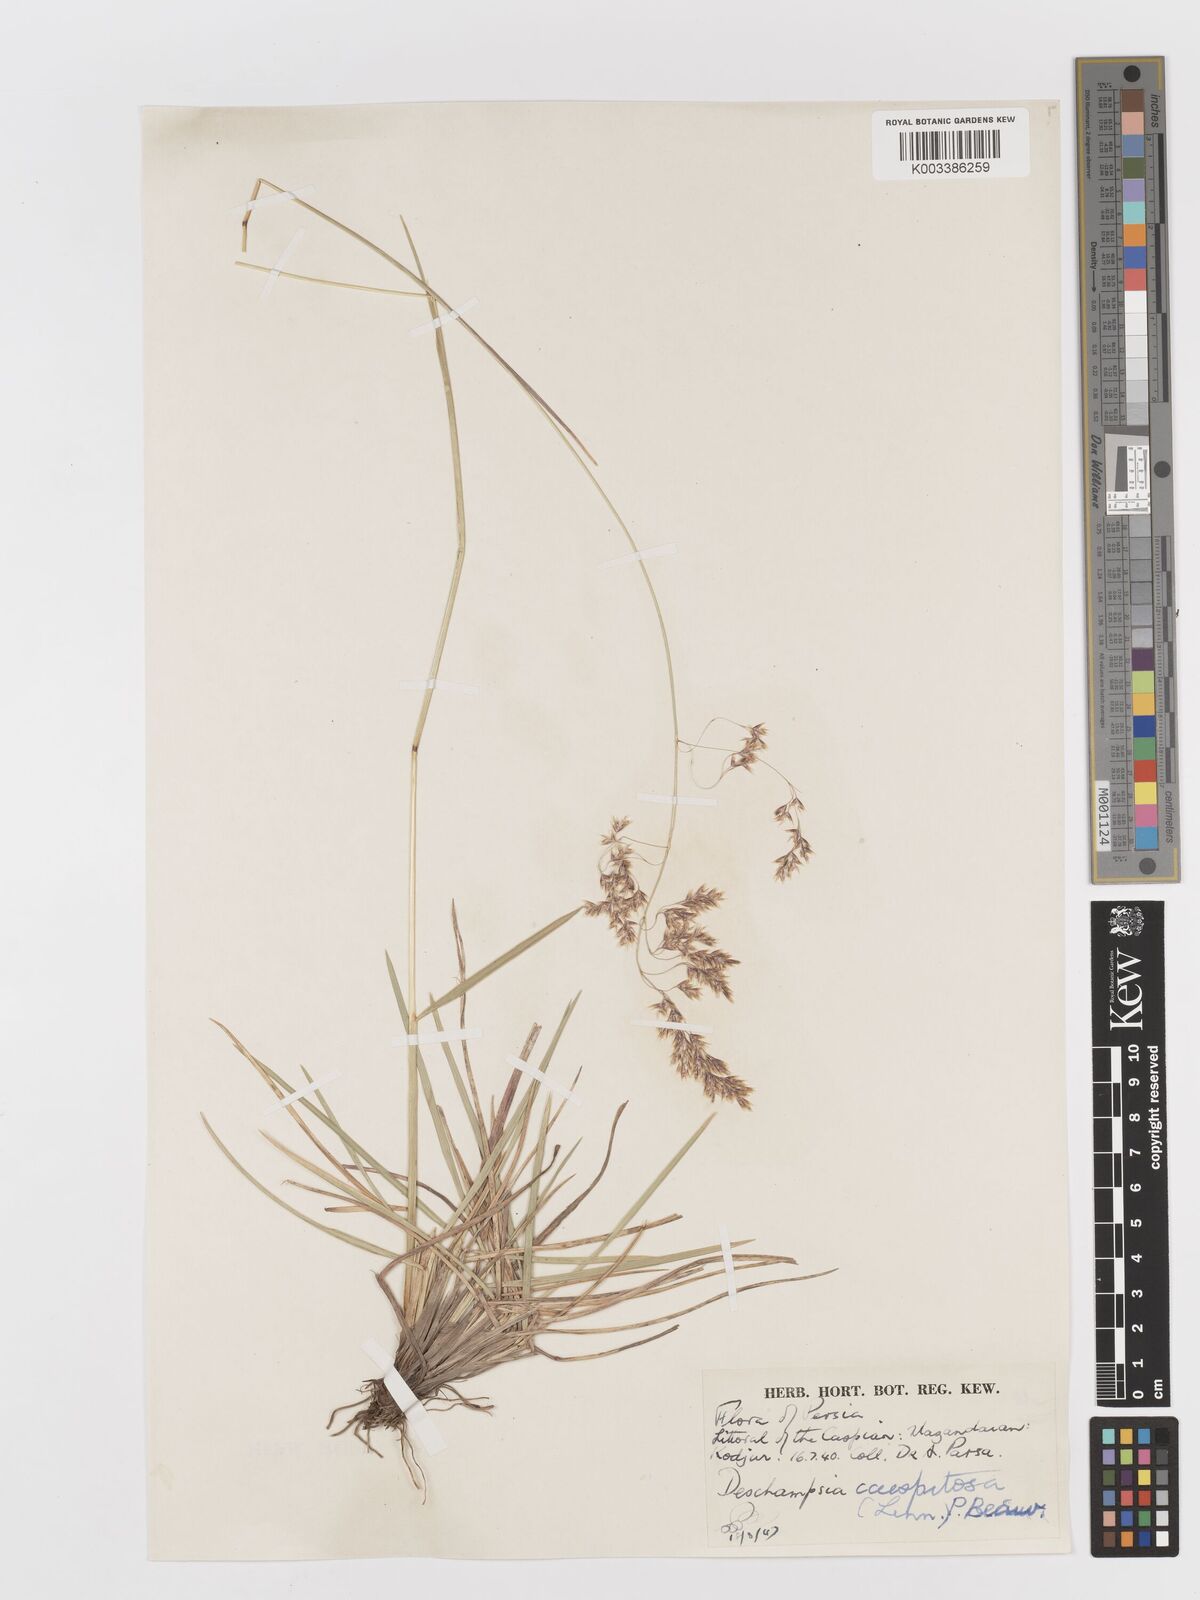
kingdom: Plantae
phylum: Tracheophyta
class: Liliopsida
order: Poales
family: Poaceae
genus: Deschampsia
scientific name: Deschampsia cespitosa
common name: Tufted hair-grass
